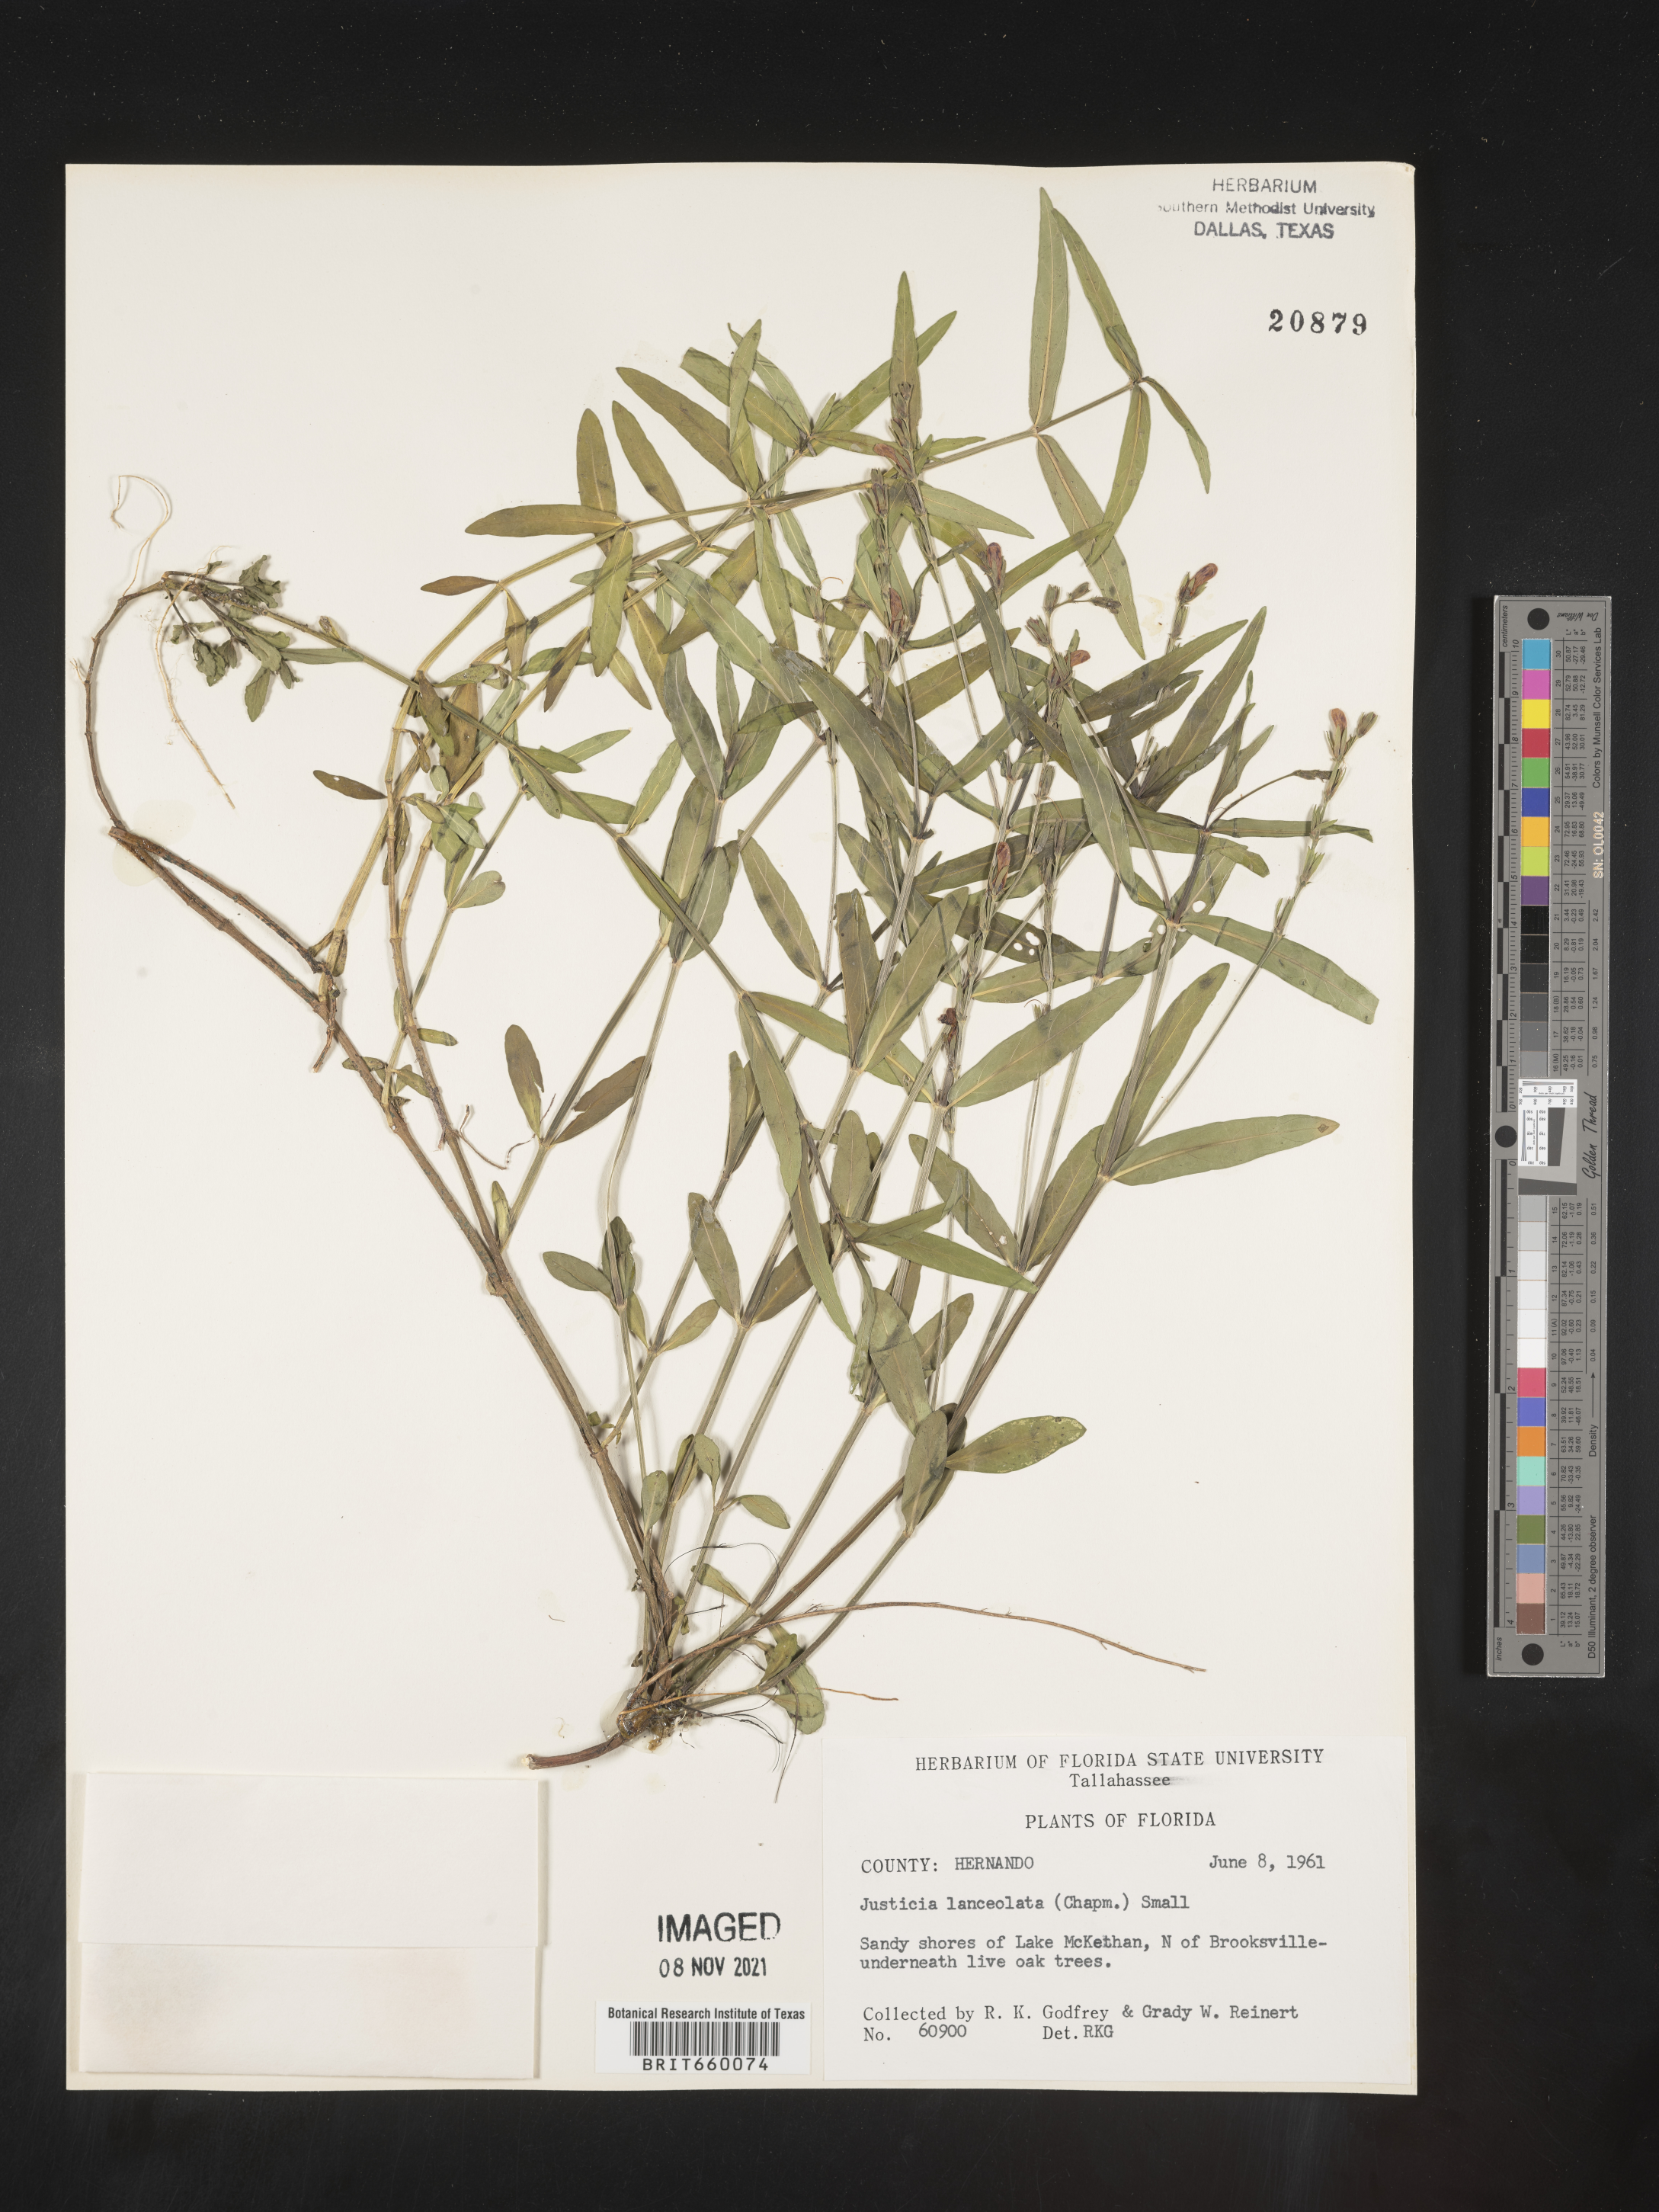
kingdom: Plantae
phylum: Tracheophyta
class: Magnoliopsida
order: Lamiales
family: Acanthaceae
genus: Justicia
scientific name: Justicia lanceolata
